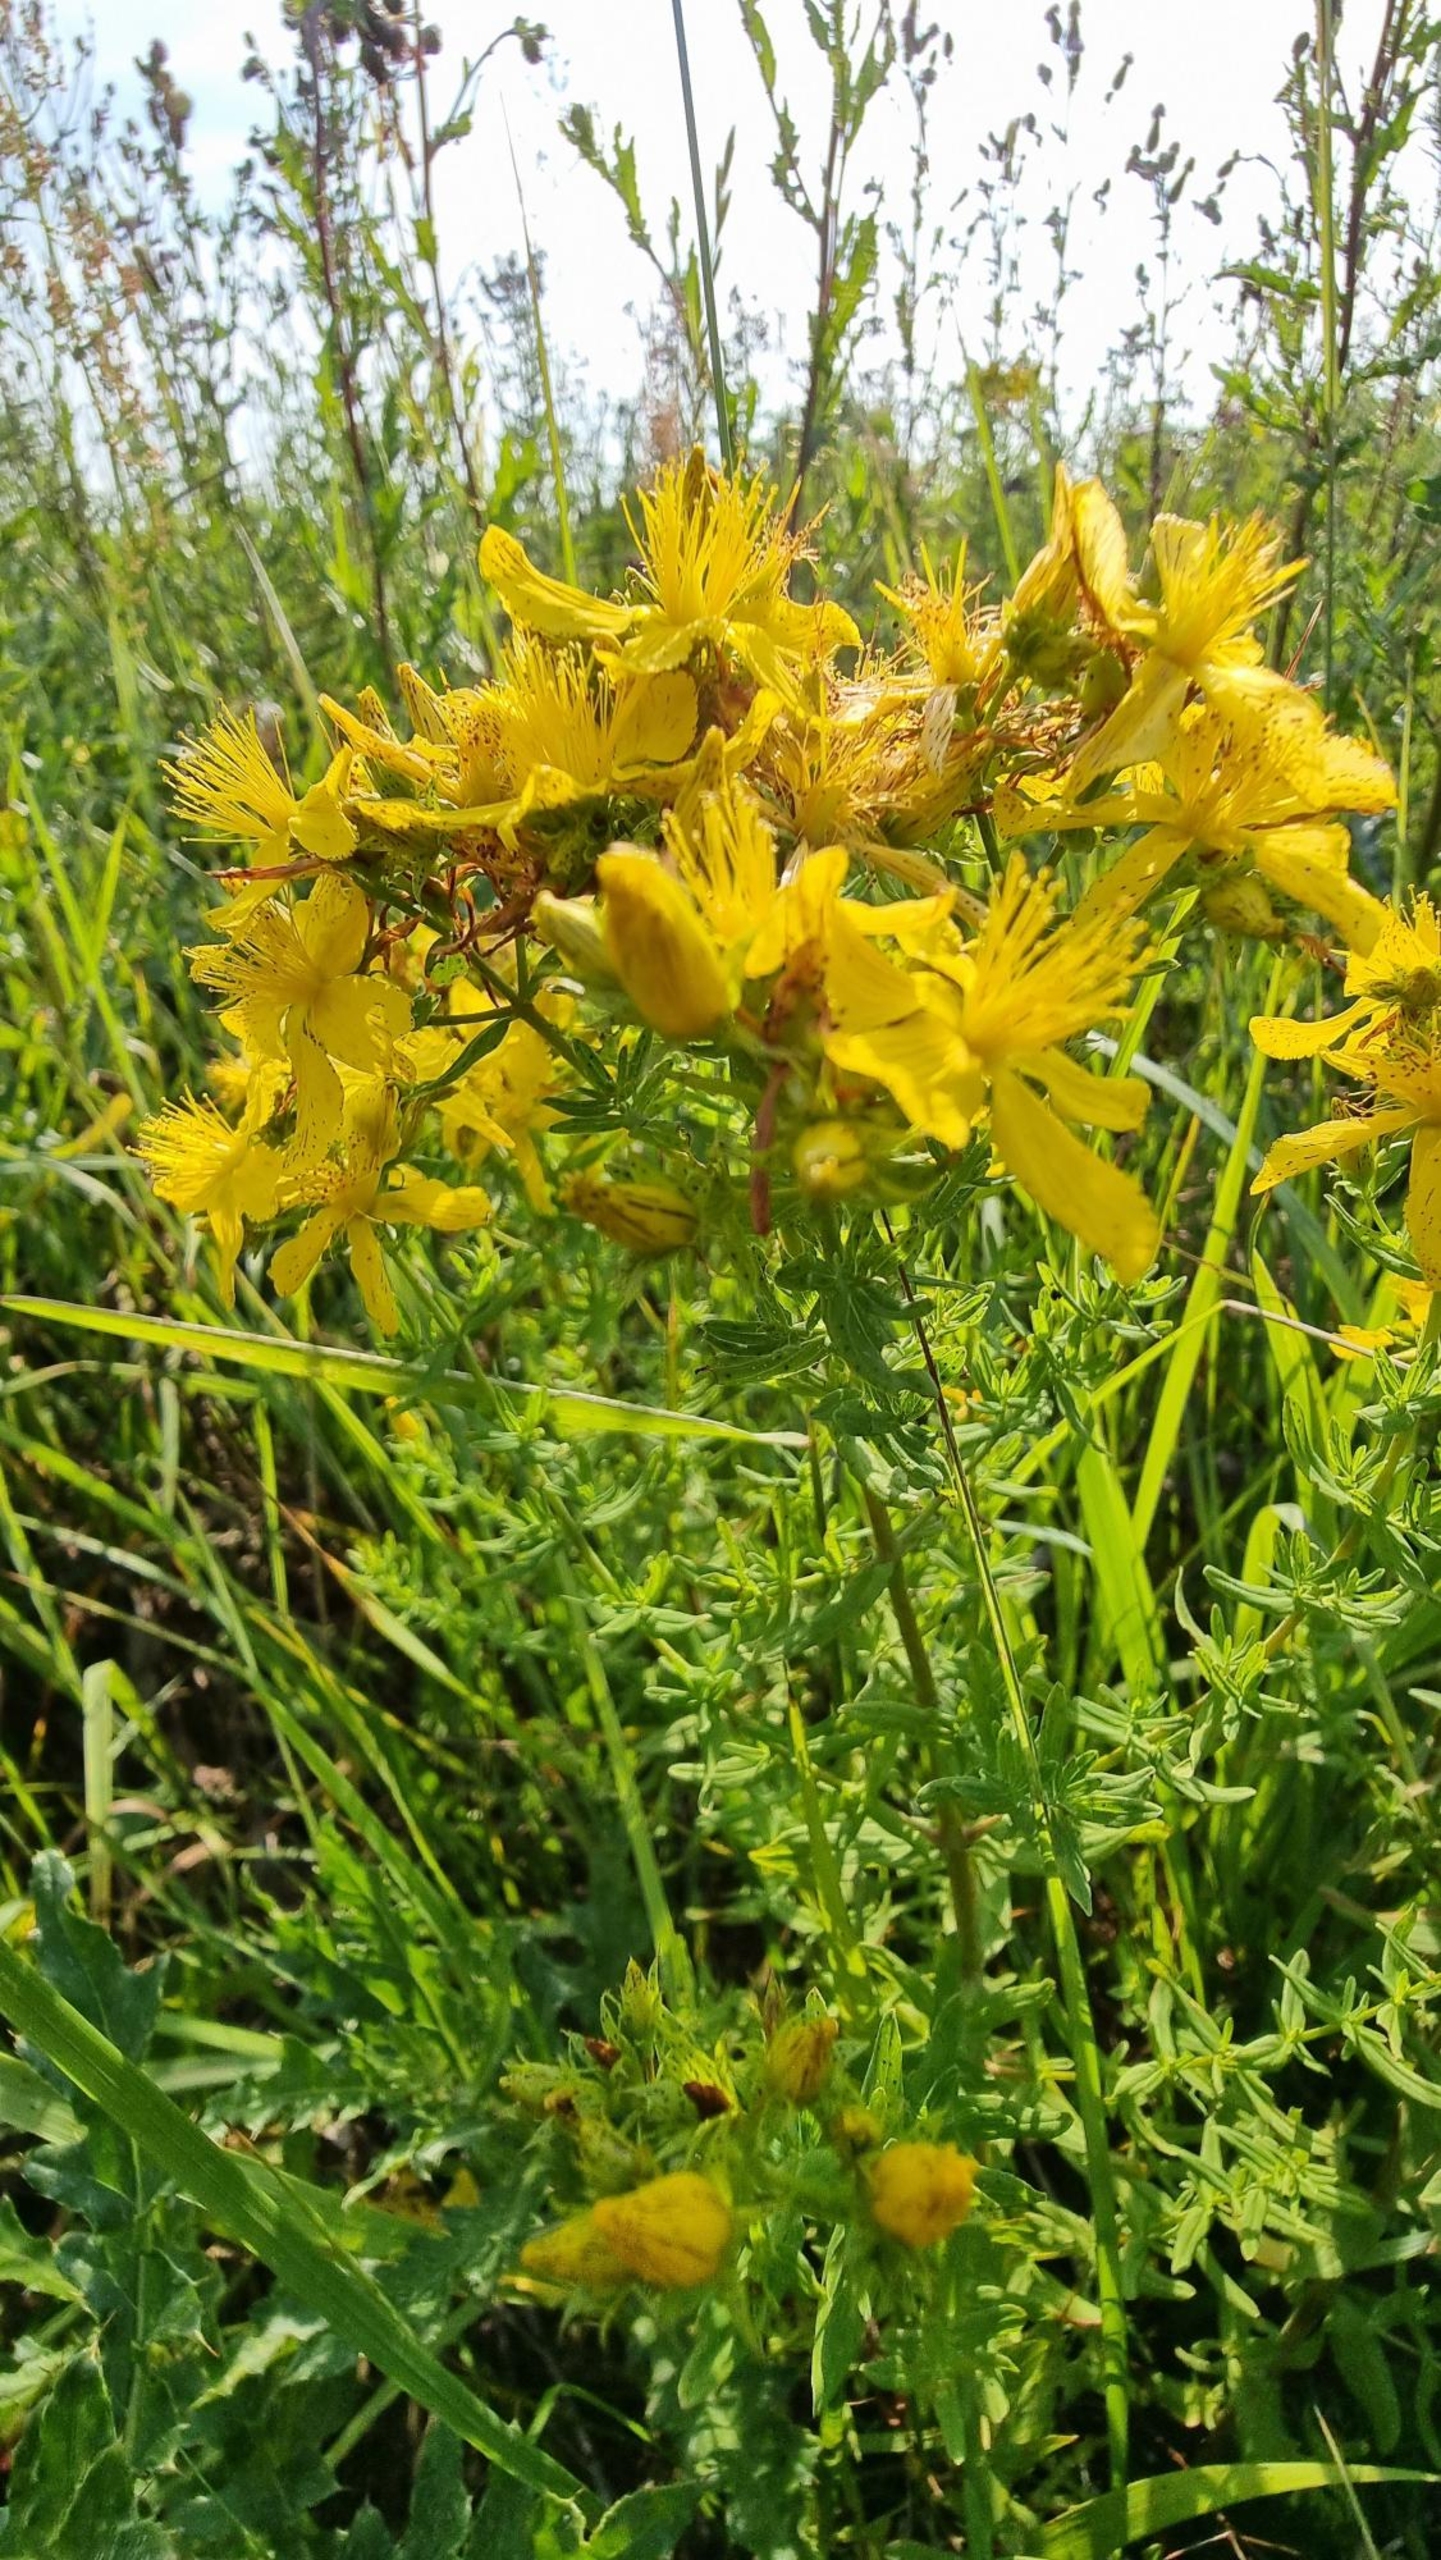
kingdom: Plantae
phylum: Tracheophyta
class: Magnoliopsida
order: Malpighiales
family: Hypericaceae
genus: Hypericum
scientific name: Hypericum perforatum
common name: Prikbladet perikon
